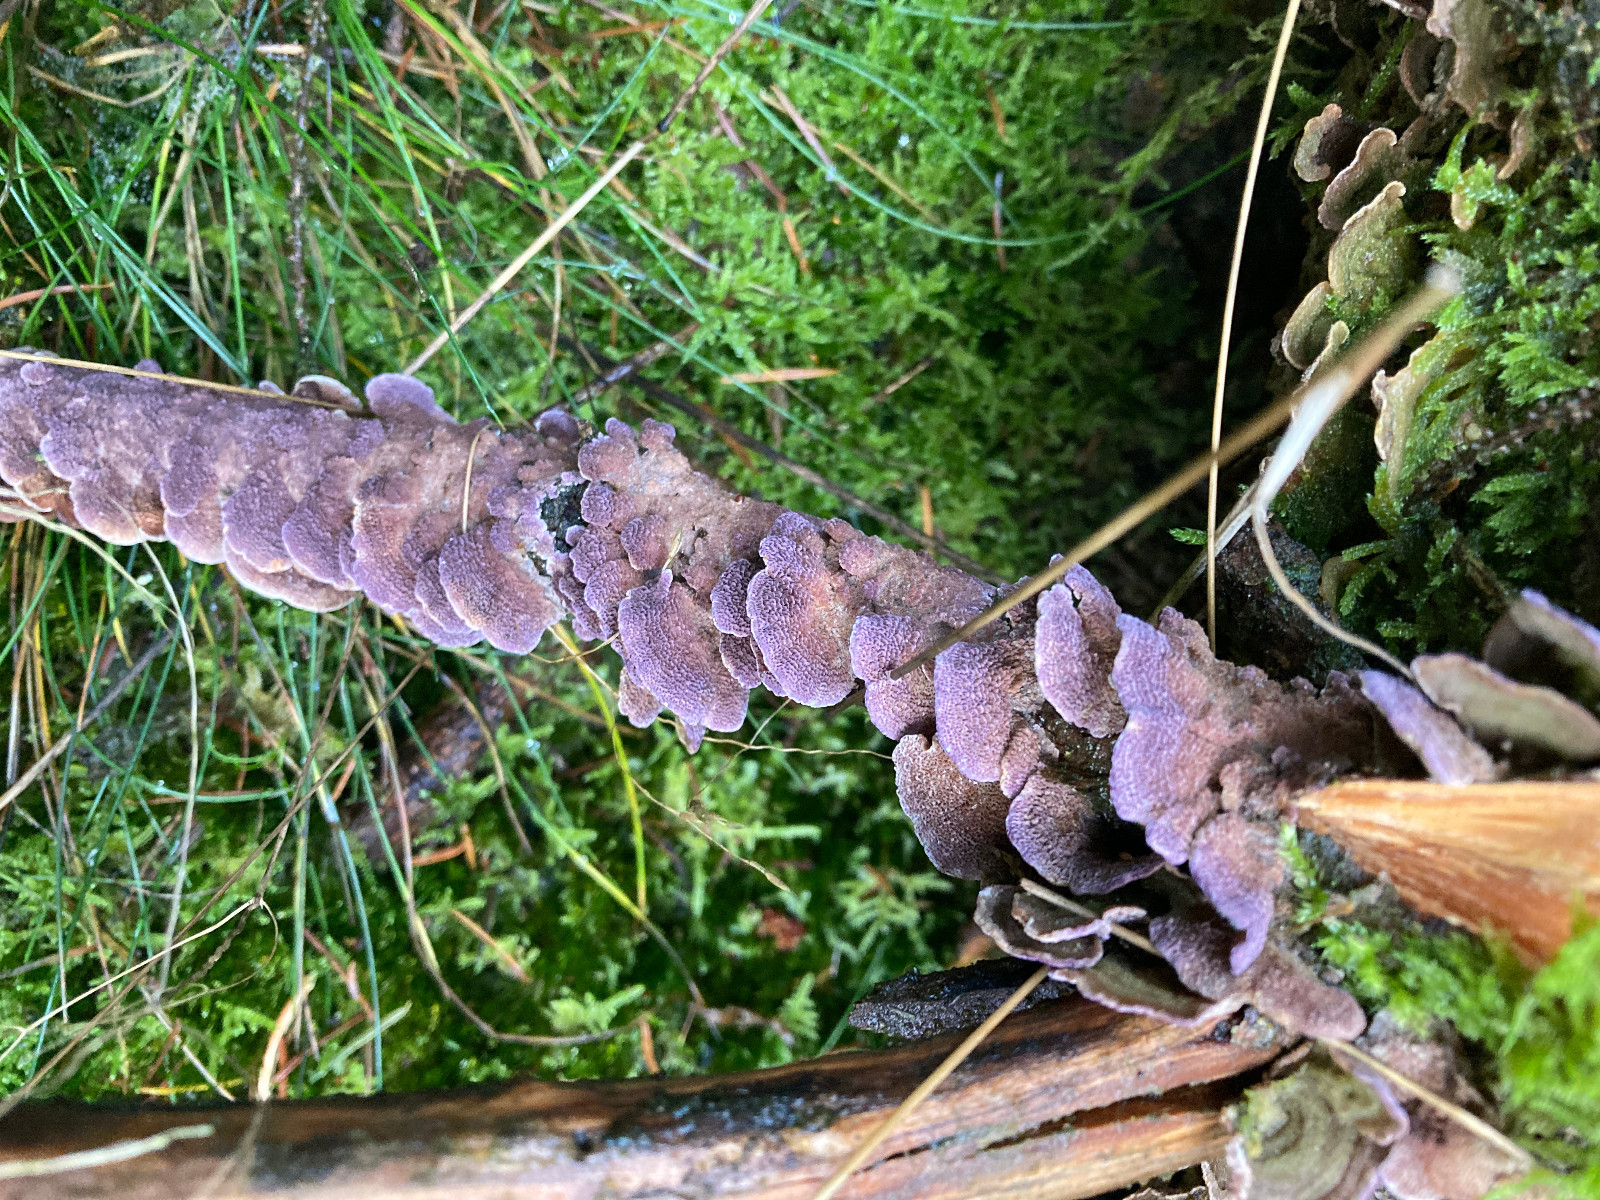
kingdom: Fungi
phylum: Basidiomycota
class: Agaricomycetes
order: Hymenochaetales
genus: Trichaptum
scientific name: Trichaptum abietinum
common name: almindelig violporesvamp
